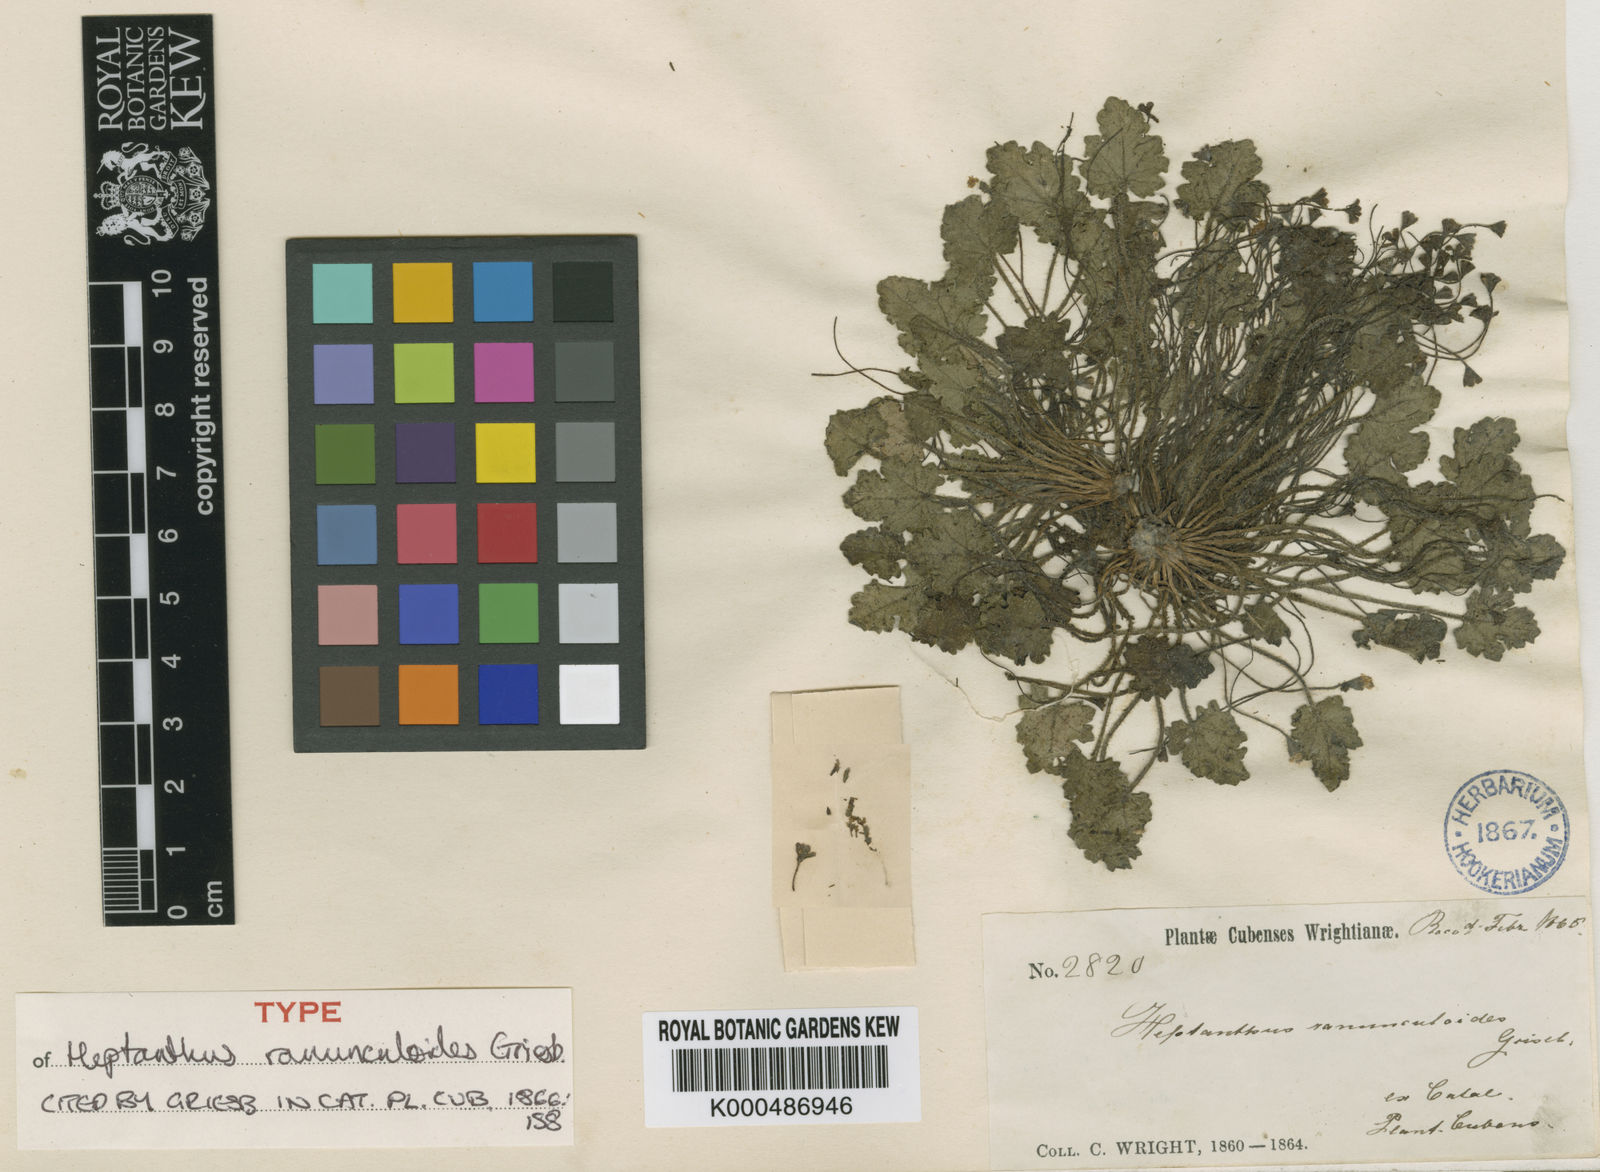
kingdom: Plantae
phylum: Tracheophyta
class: Magnoliopsida
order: Asterales
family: Asteraceae
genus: Heptanthus
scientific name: Heptanthus ranunculoides
